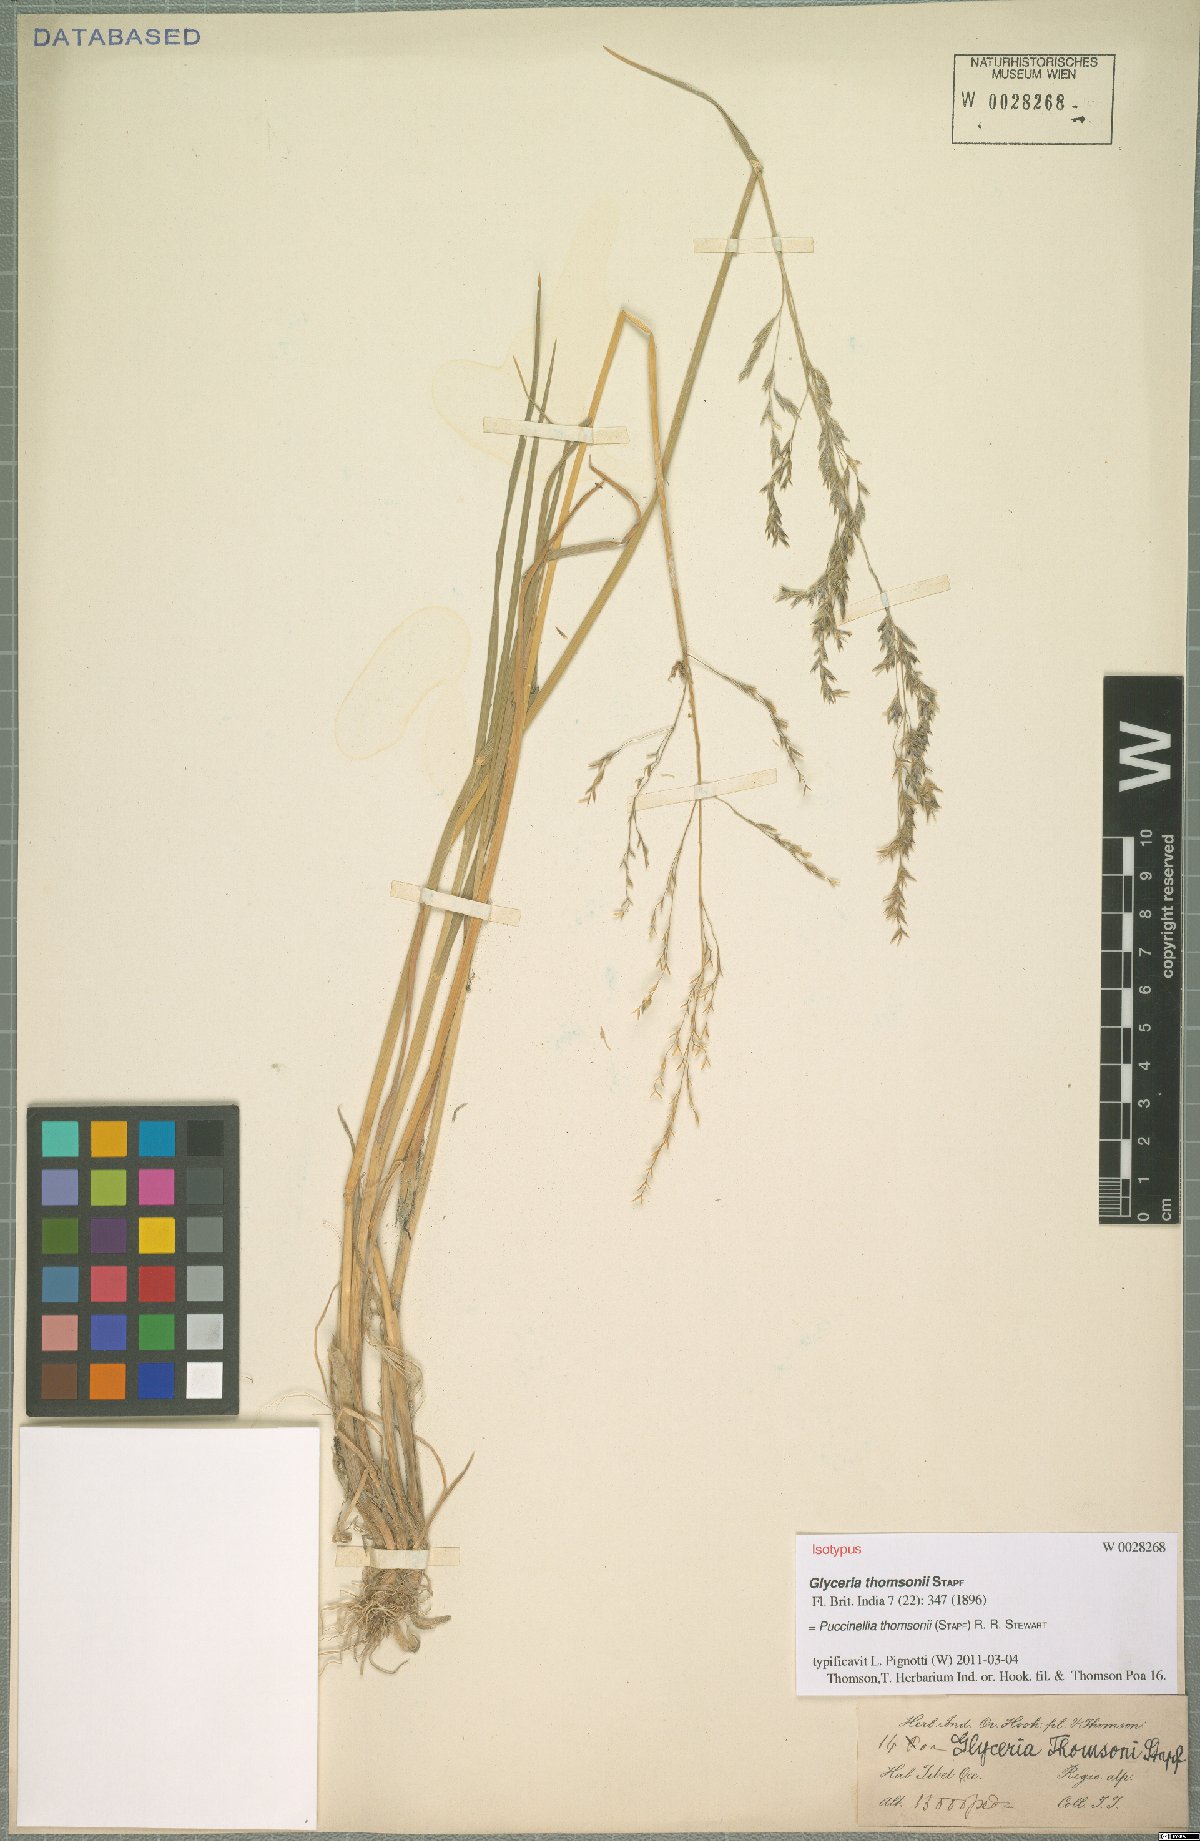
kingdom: Plantae
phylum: Tracheophyta
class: Liliopsida
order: Poales
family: Poaceae
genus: Puccinellia
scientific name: Puccinellia thomsonii
